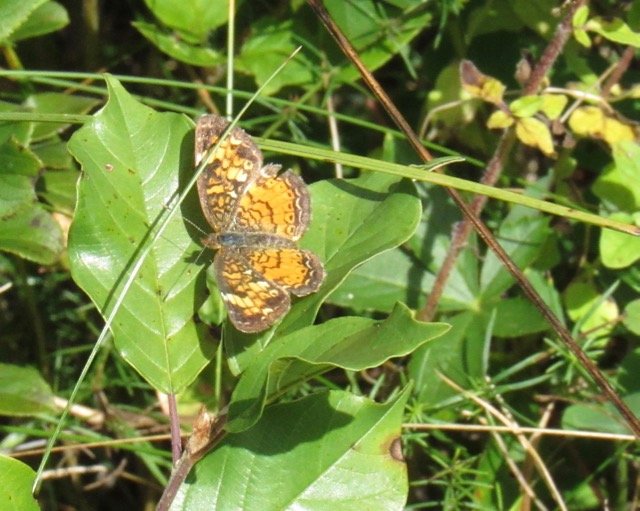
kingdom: Animalia
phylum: Arthropoda
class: Insecta
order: Lepidoptera
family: Nymphalidae
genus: Phyciodes
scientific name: Phyciodes tharos
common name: Pearl Crescent
